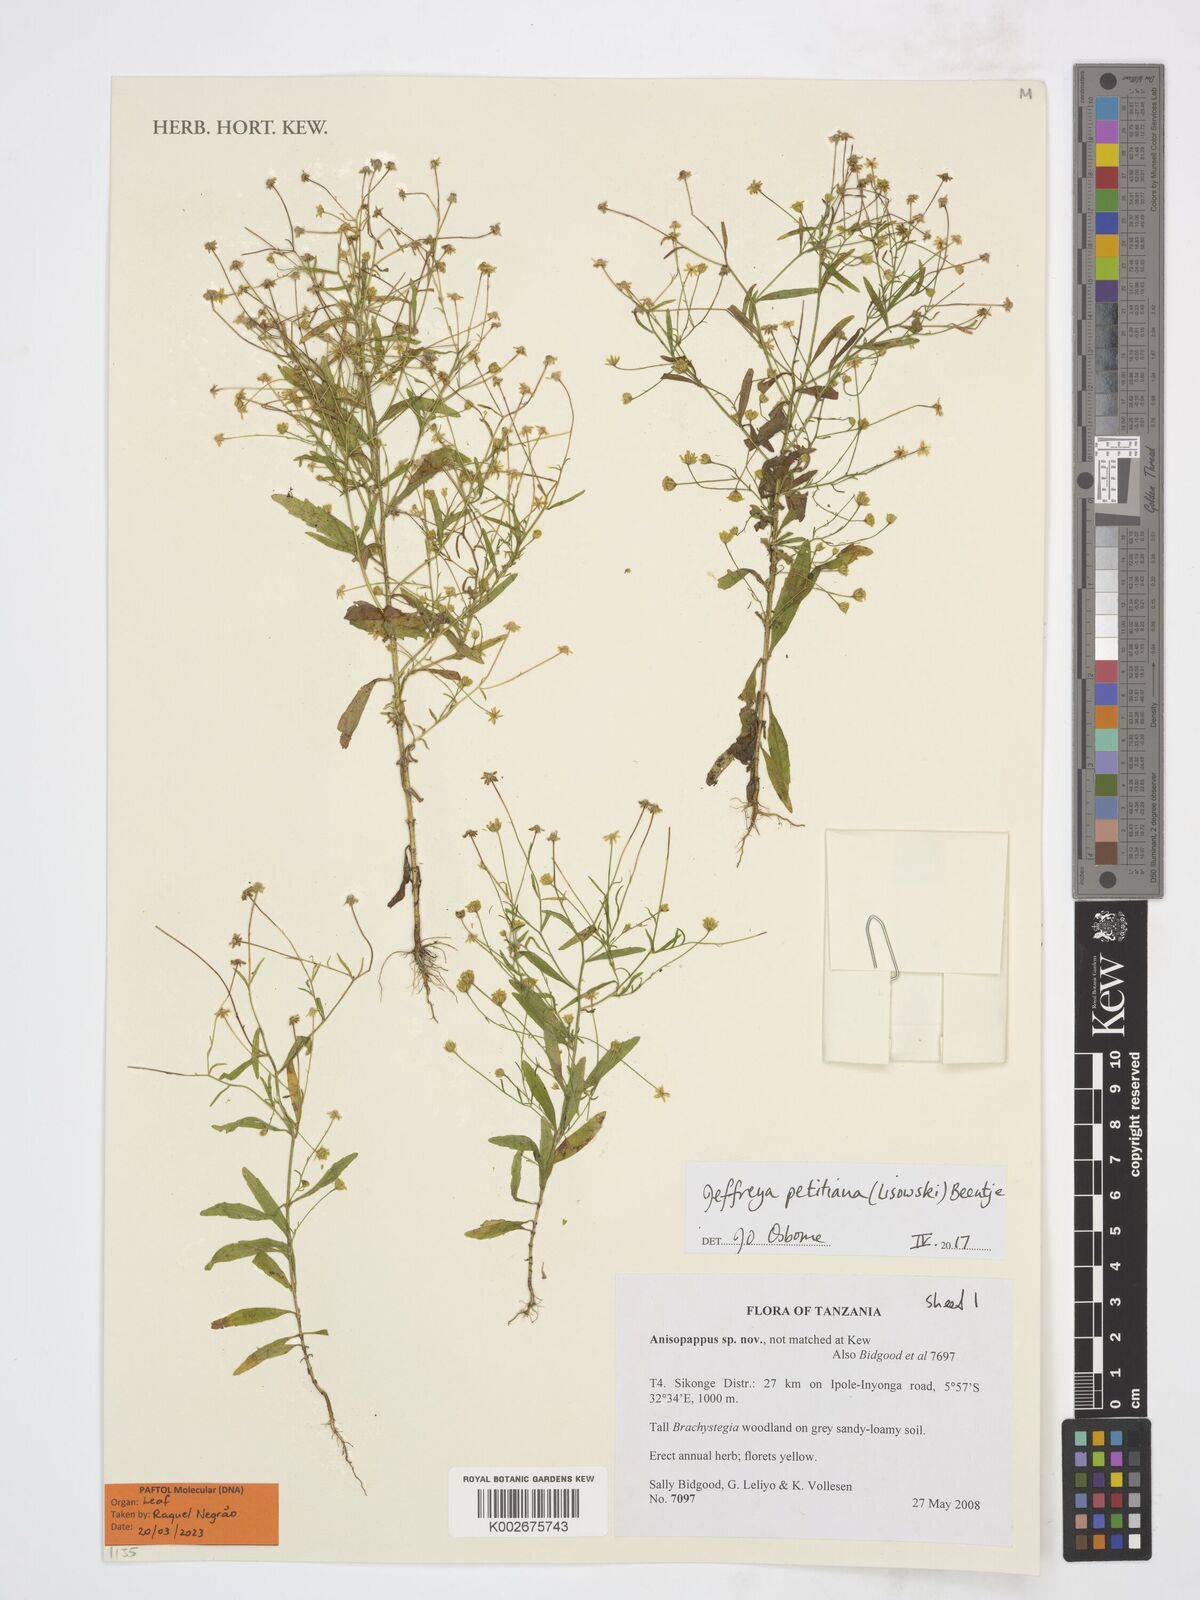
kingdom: Plantae
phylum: Tracheophyta
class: Magnoliopsida
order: Asterales
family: Asteraceae
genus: Jeffreya
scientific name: Jeffreya petitiana
